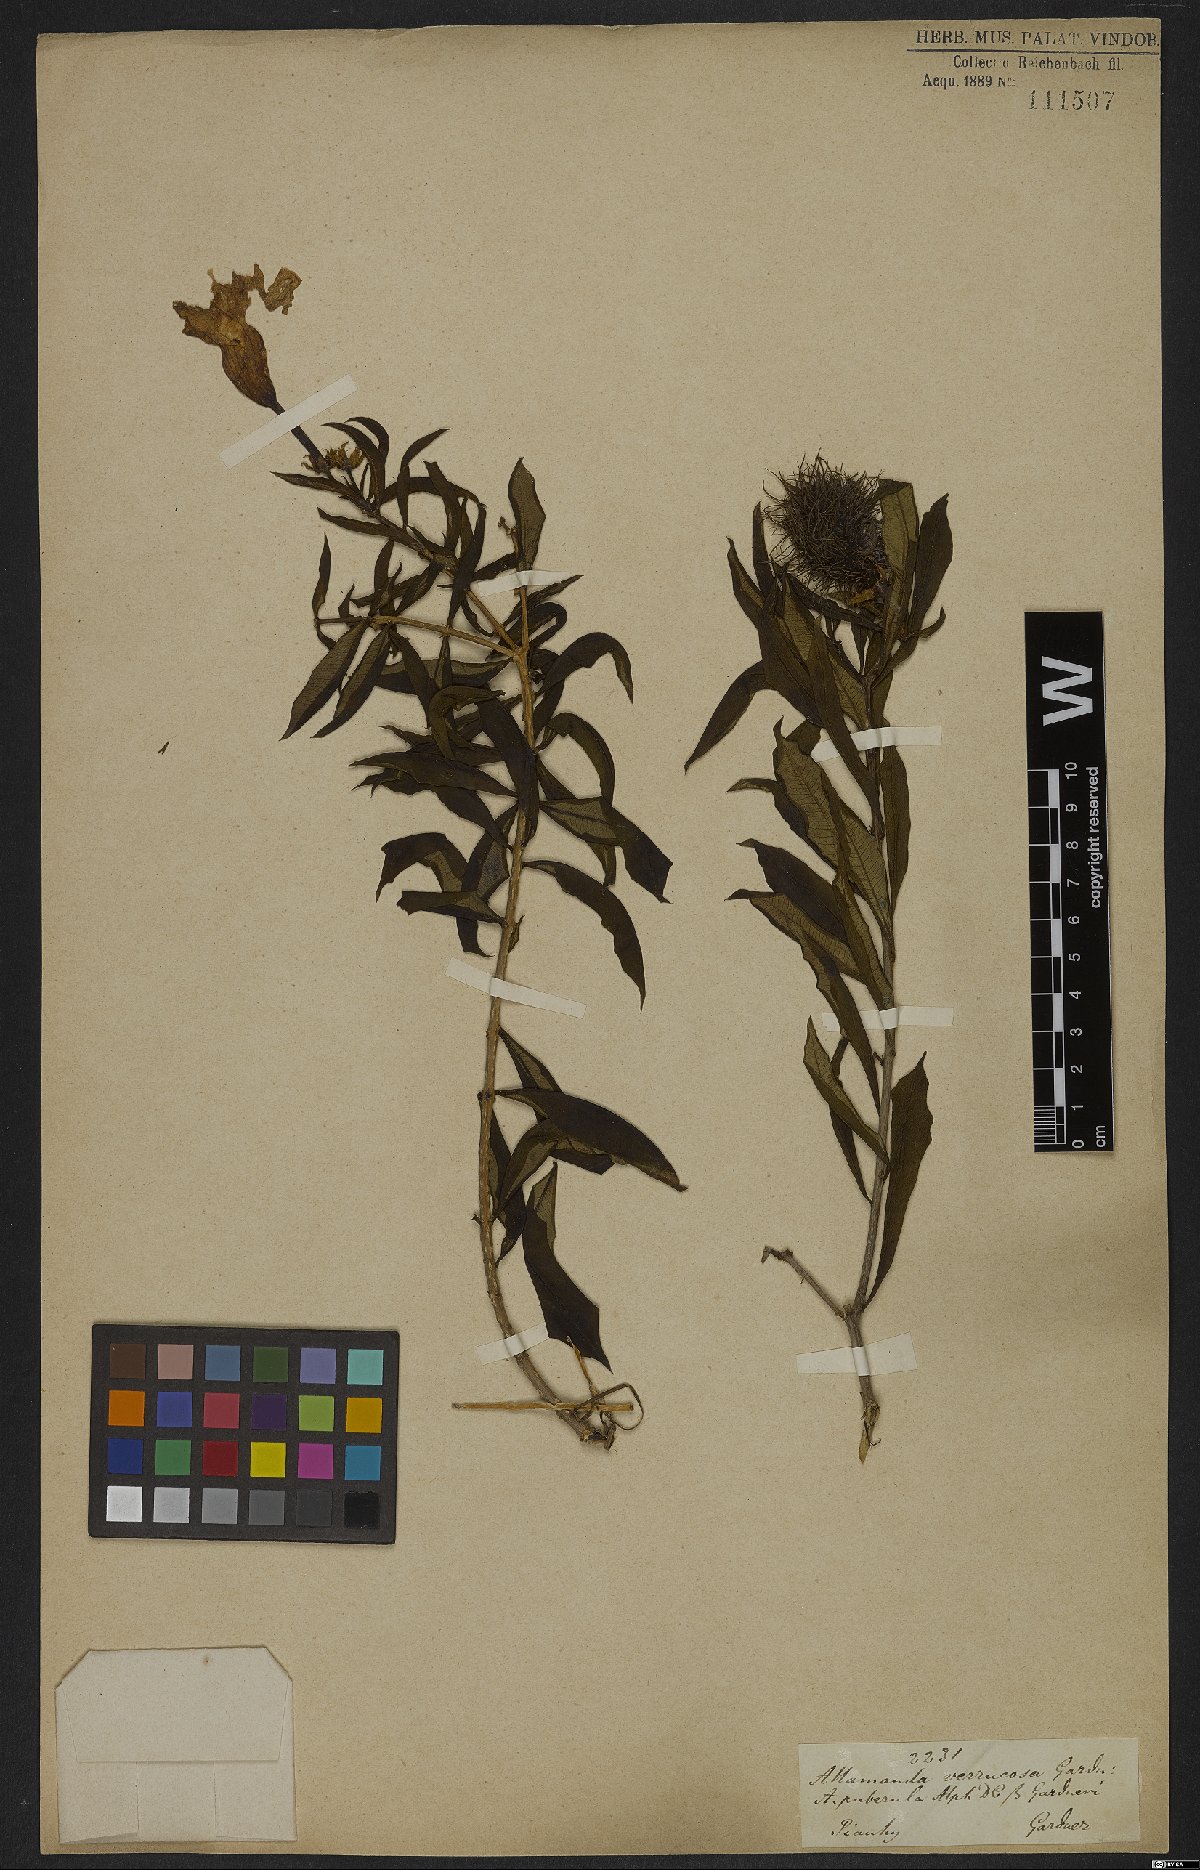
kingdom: Plantae
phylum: Tracheophyta
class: Magnoliopsida
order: Gentianales
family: Apocynaceae
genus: Allamanda
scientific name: Allamanda puberula
